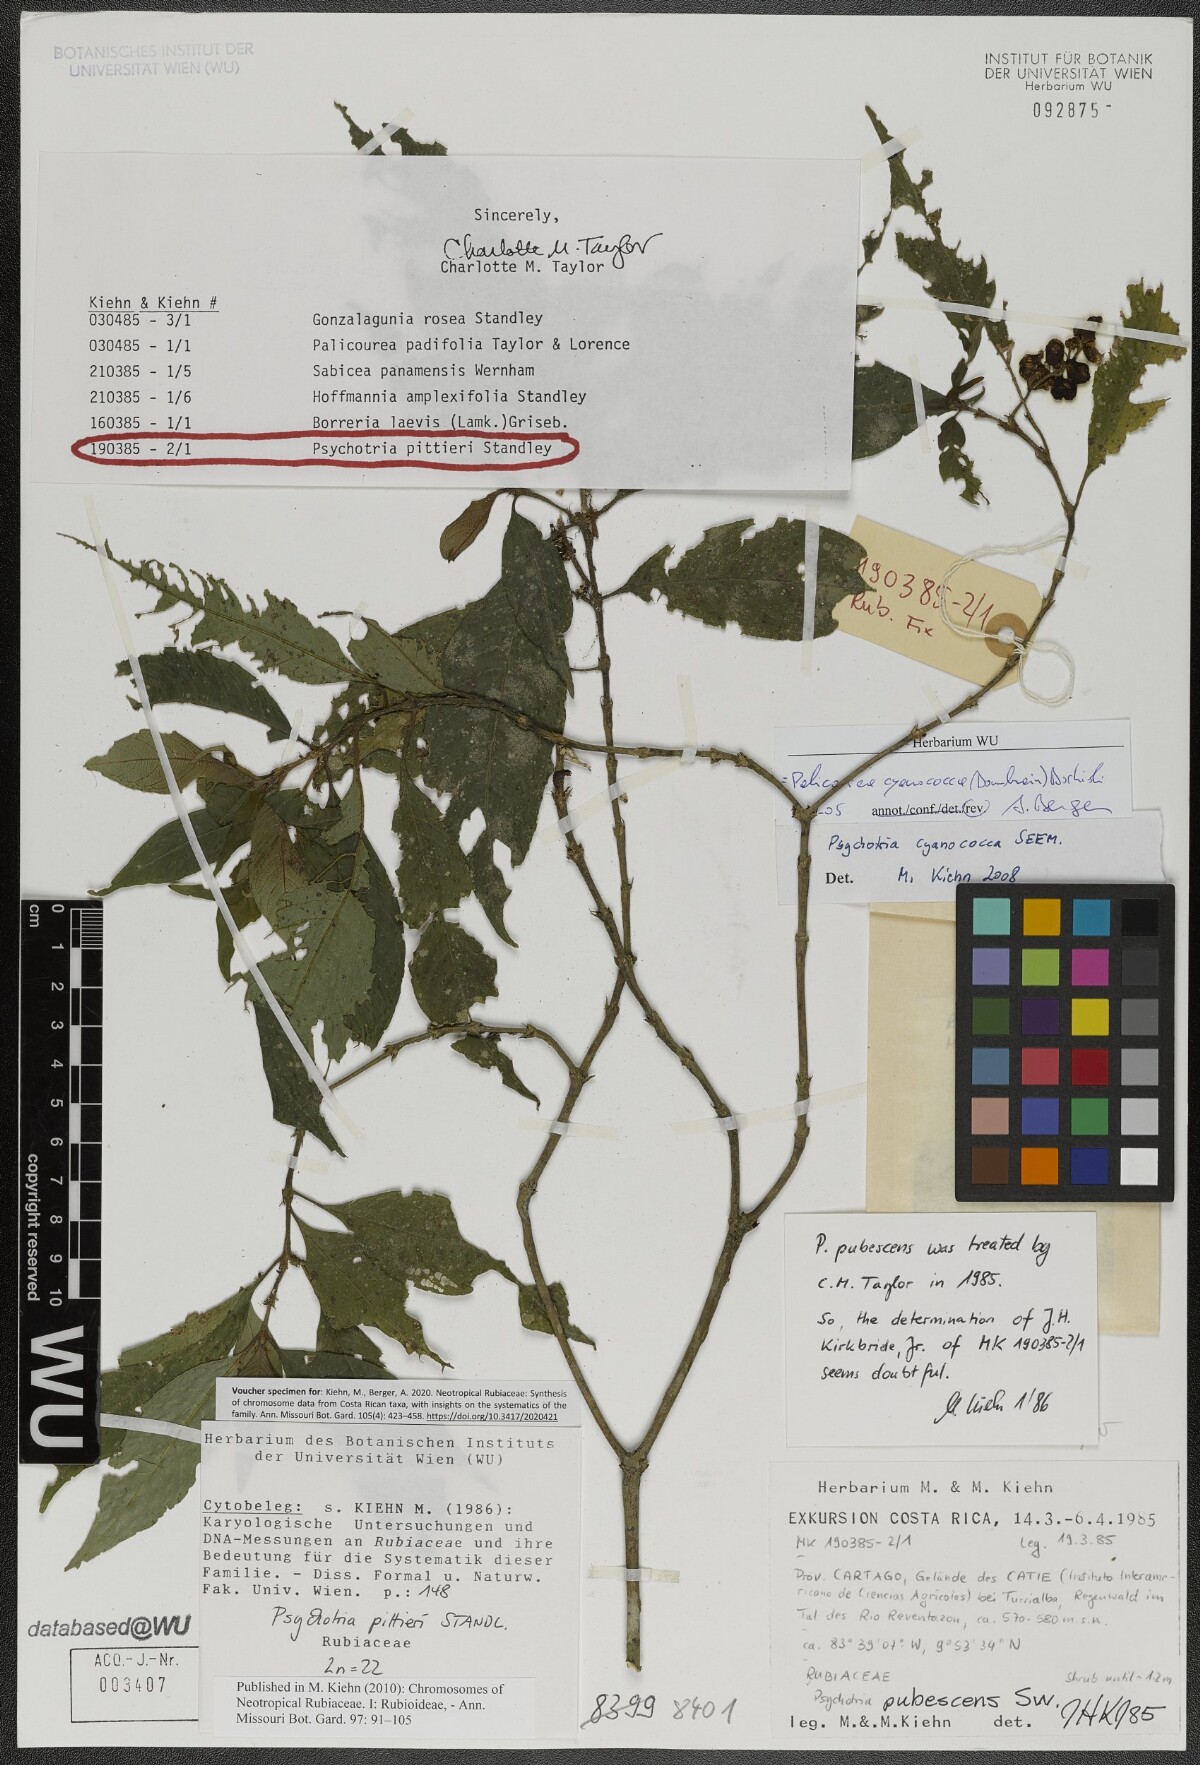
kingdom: Plantae
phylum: Tracheophyta
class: Magnoliopsida
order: Gentianales
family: Rubiaceae
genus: Palicourea
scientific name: Palicourea cyanococca
